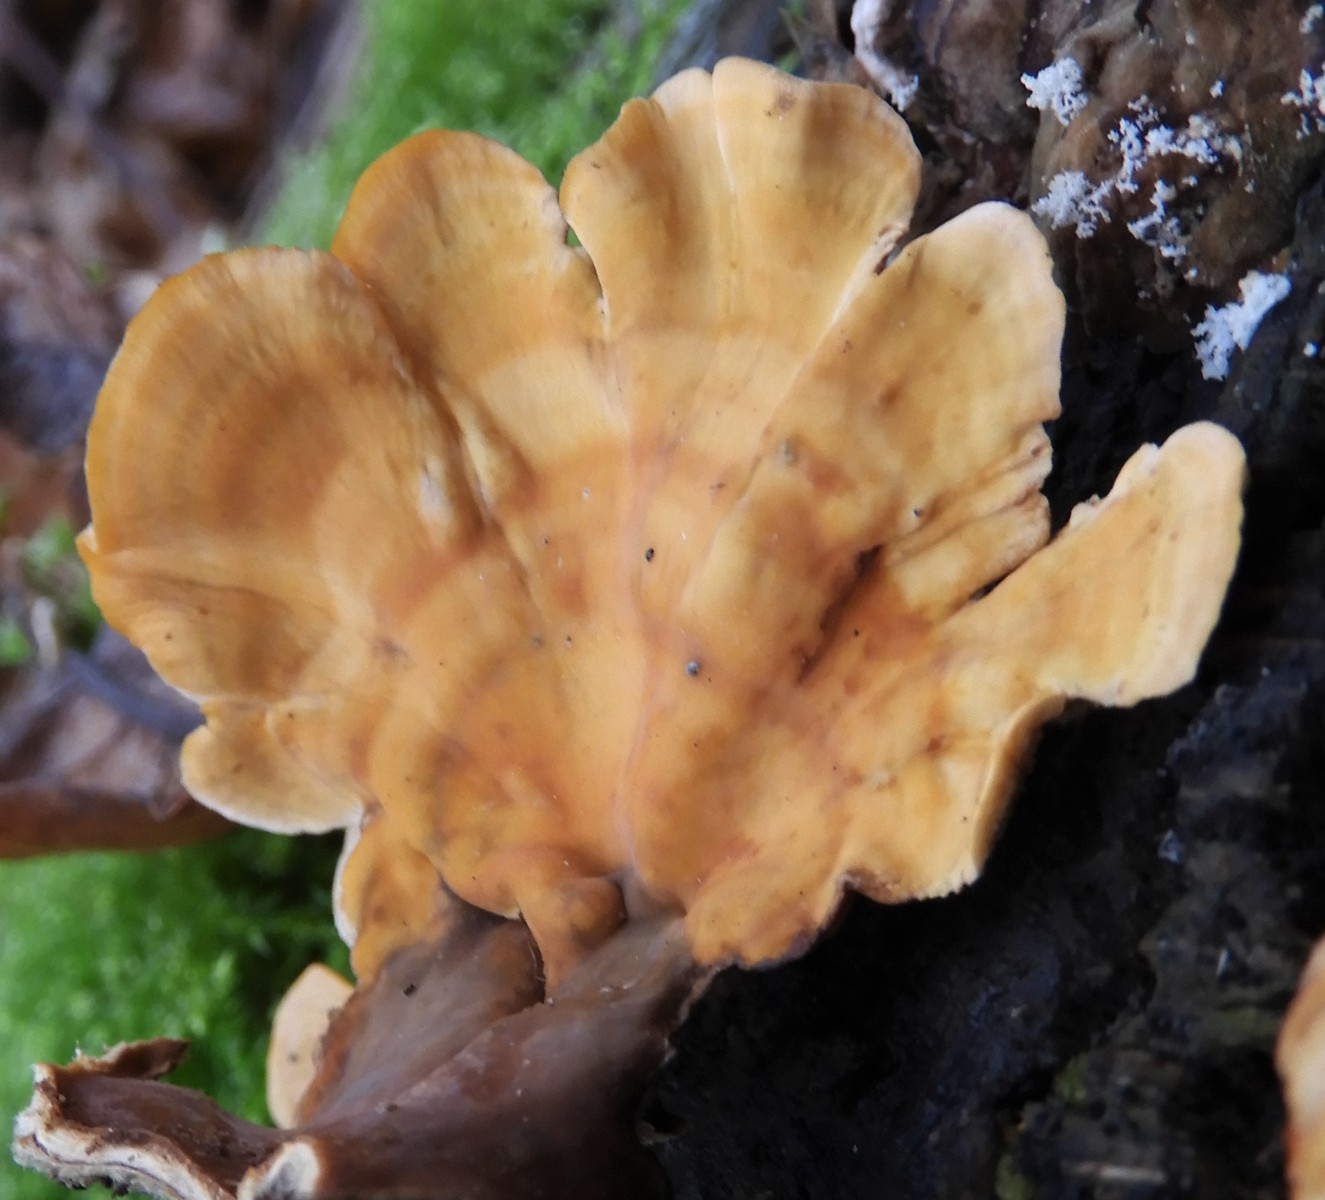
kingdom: Fungi
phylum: Basidiomycota
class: Agaricomycetes
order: Russulales
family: Stereaceae
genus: Stereum
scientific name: Stereum hirsutum
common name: håret lædersvamp
